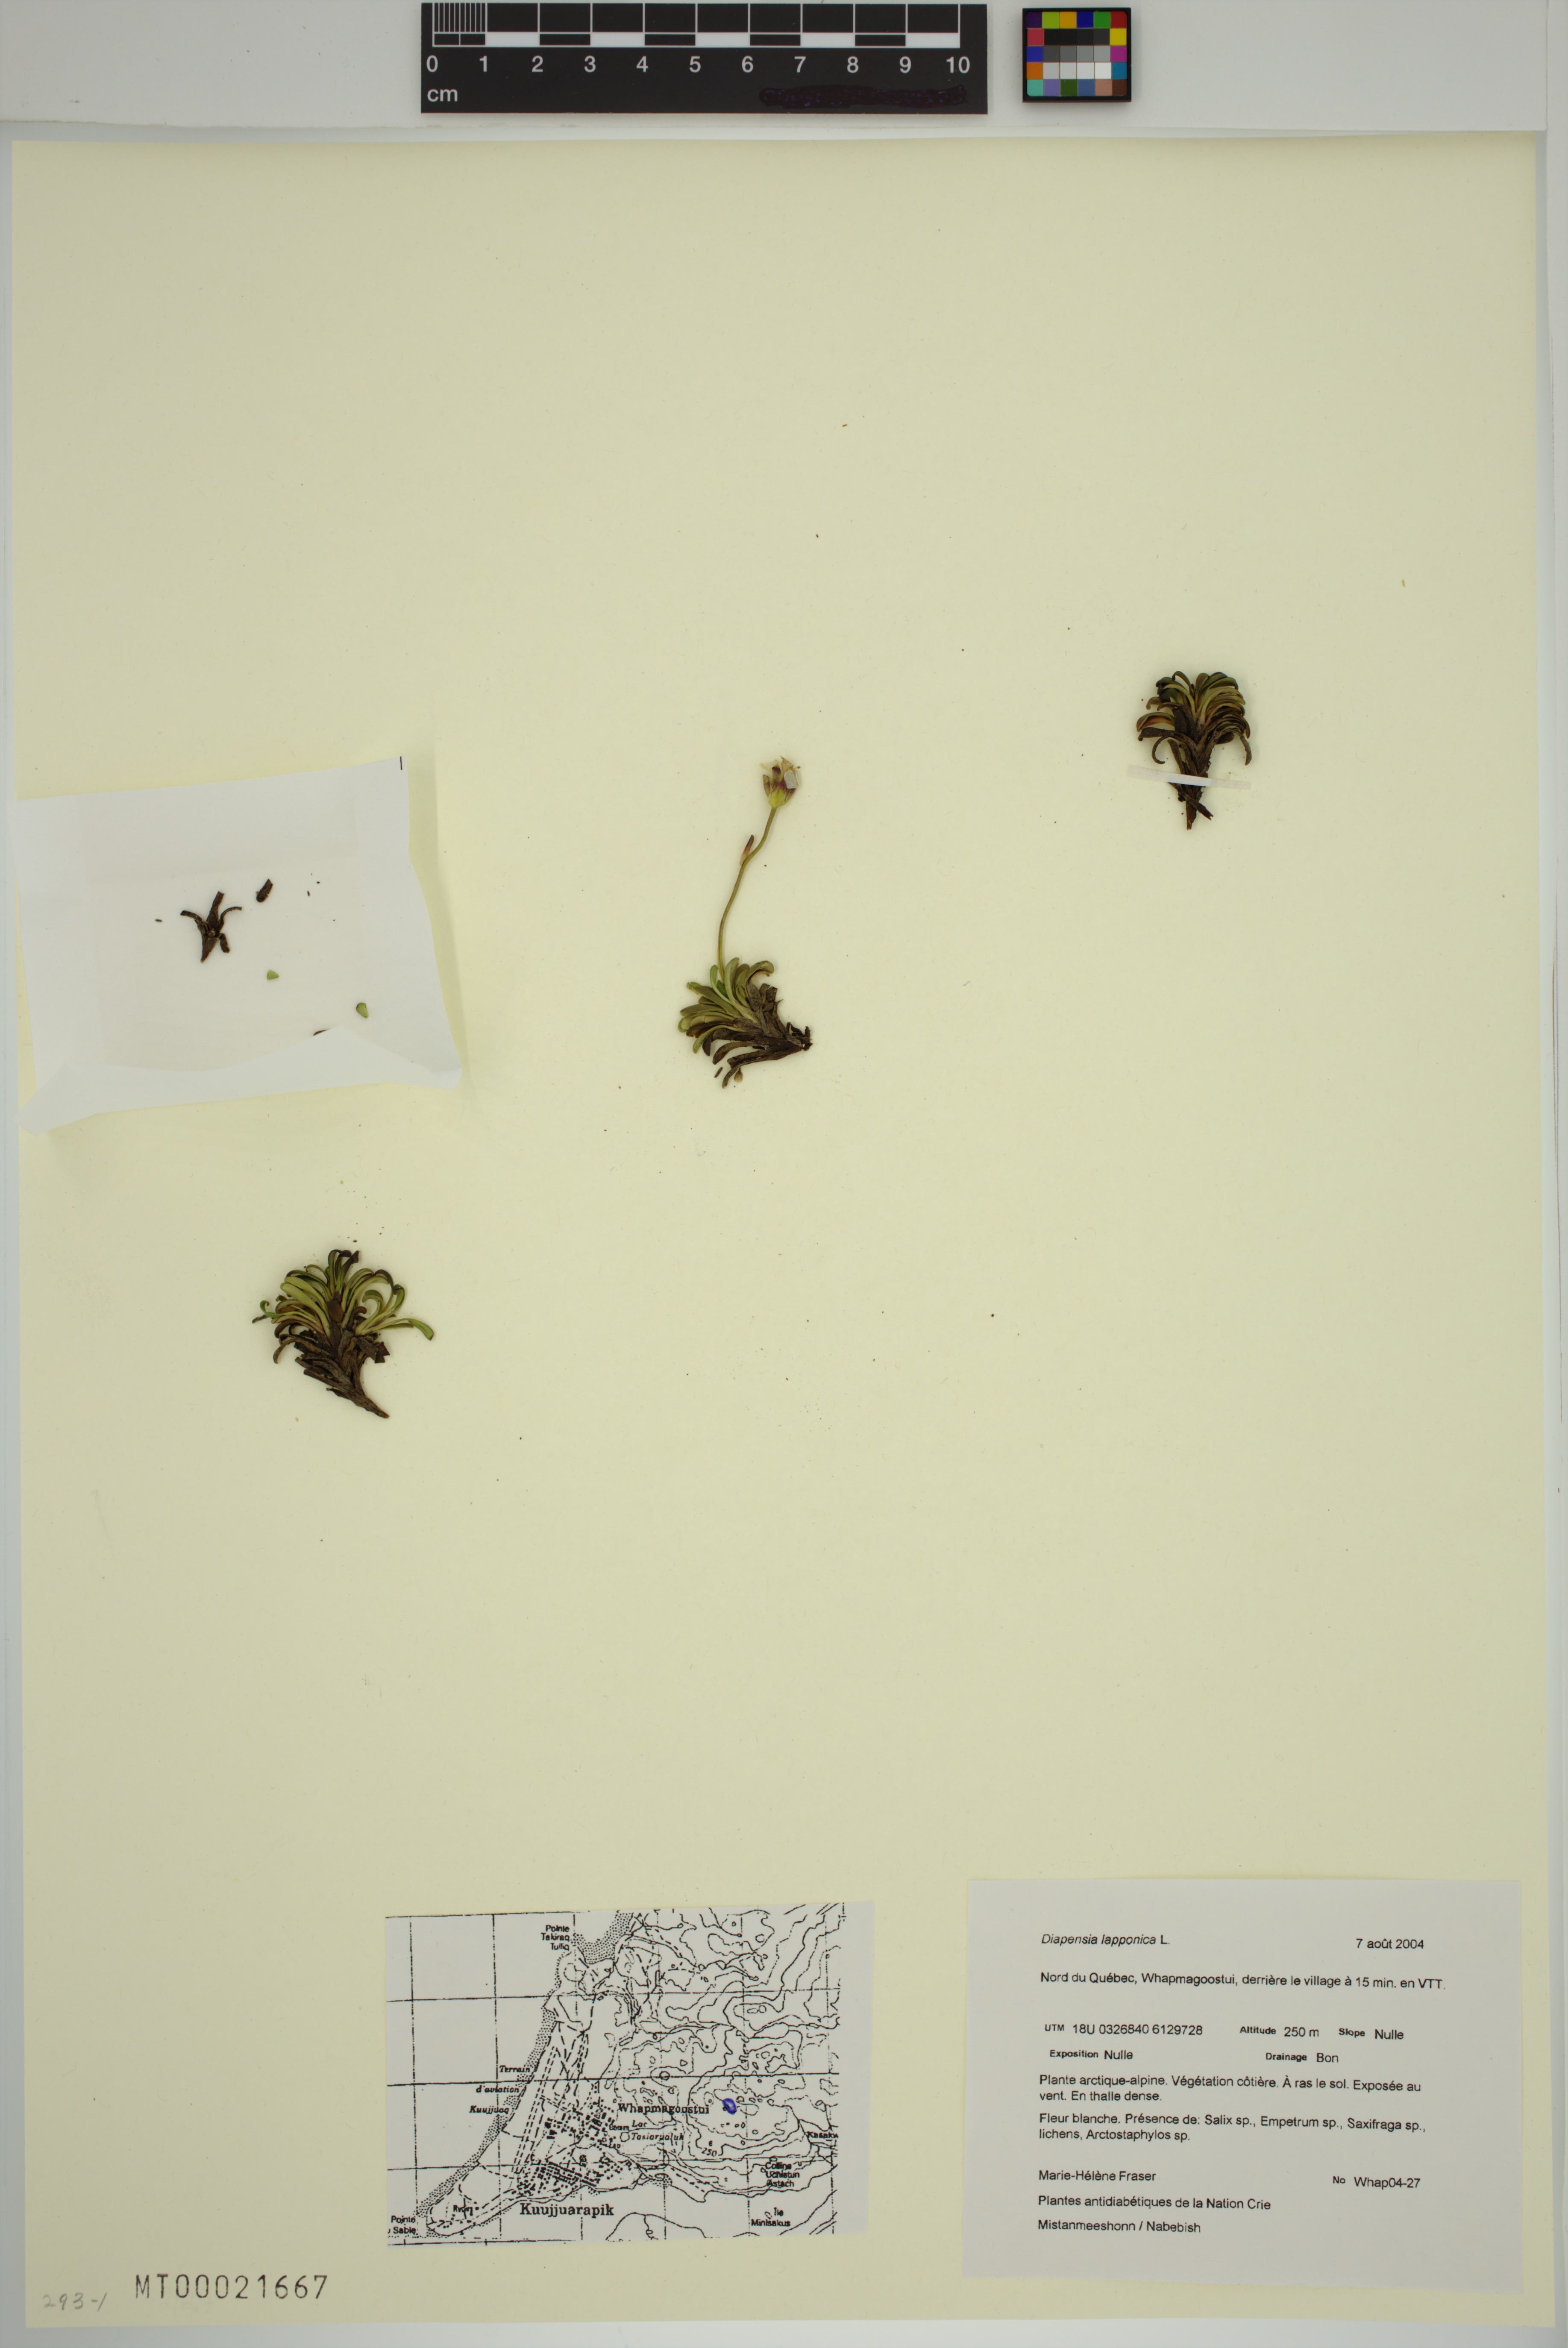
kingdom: Plantae
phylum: Tracheophyta
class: Magnoliopsida
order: Ericales
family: Diapensiaceae
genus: Diapensia
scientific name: Diapensia lapponica
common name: Diapensia
